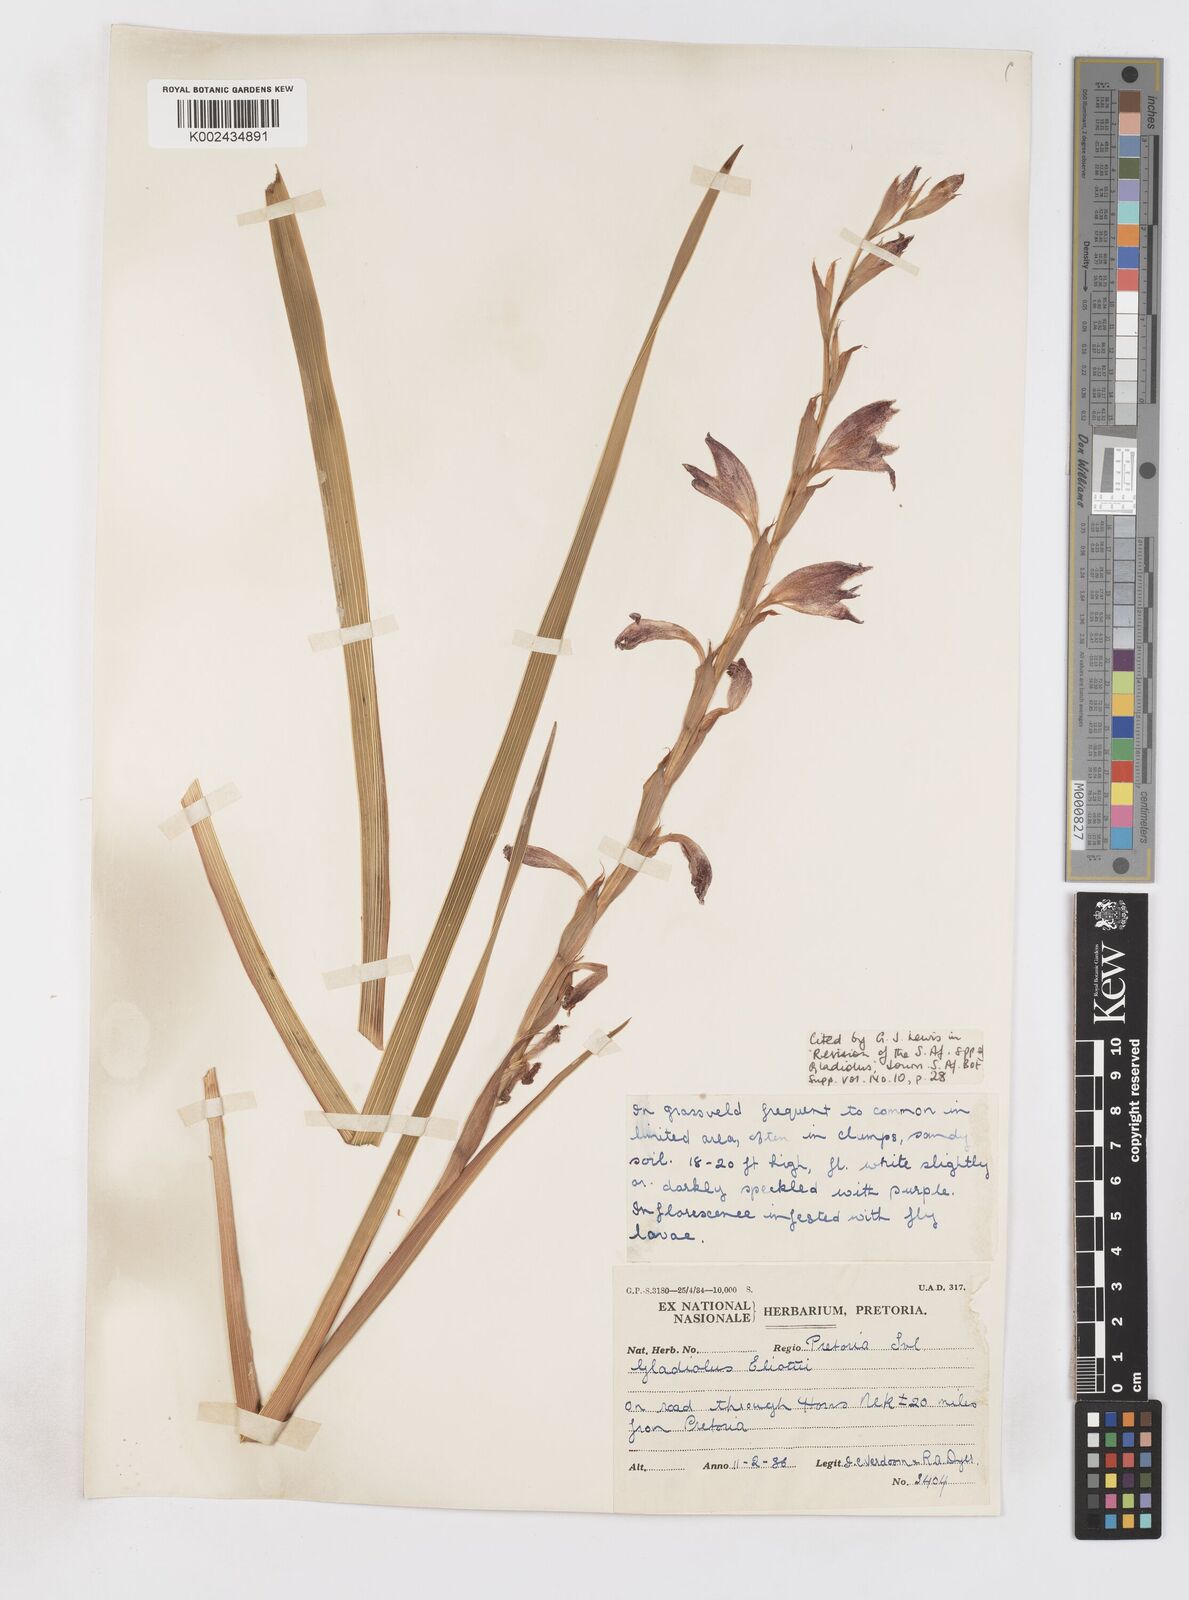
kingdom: Plantae
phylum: Tracheophyta
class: Liliopsida
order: Asparagales
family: Iridaceae
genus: Gladiolus
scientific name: Gladiolus elliotii
